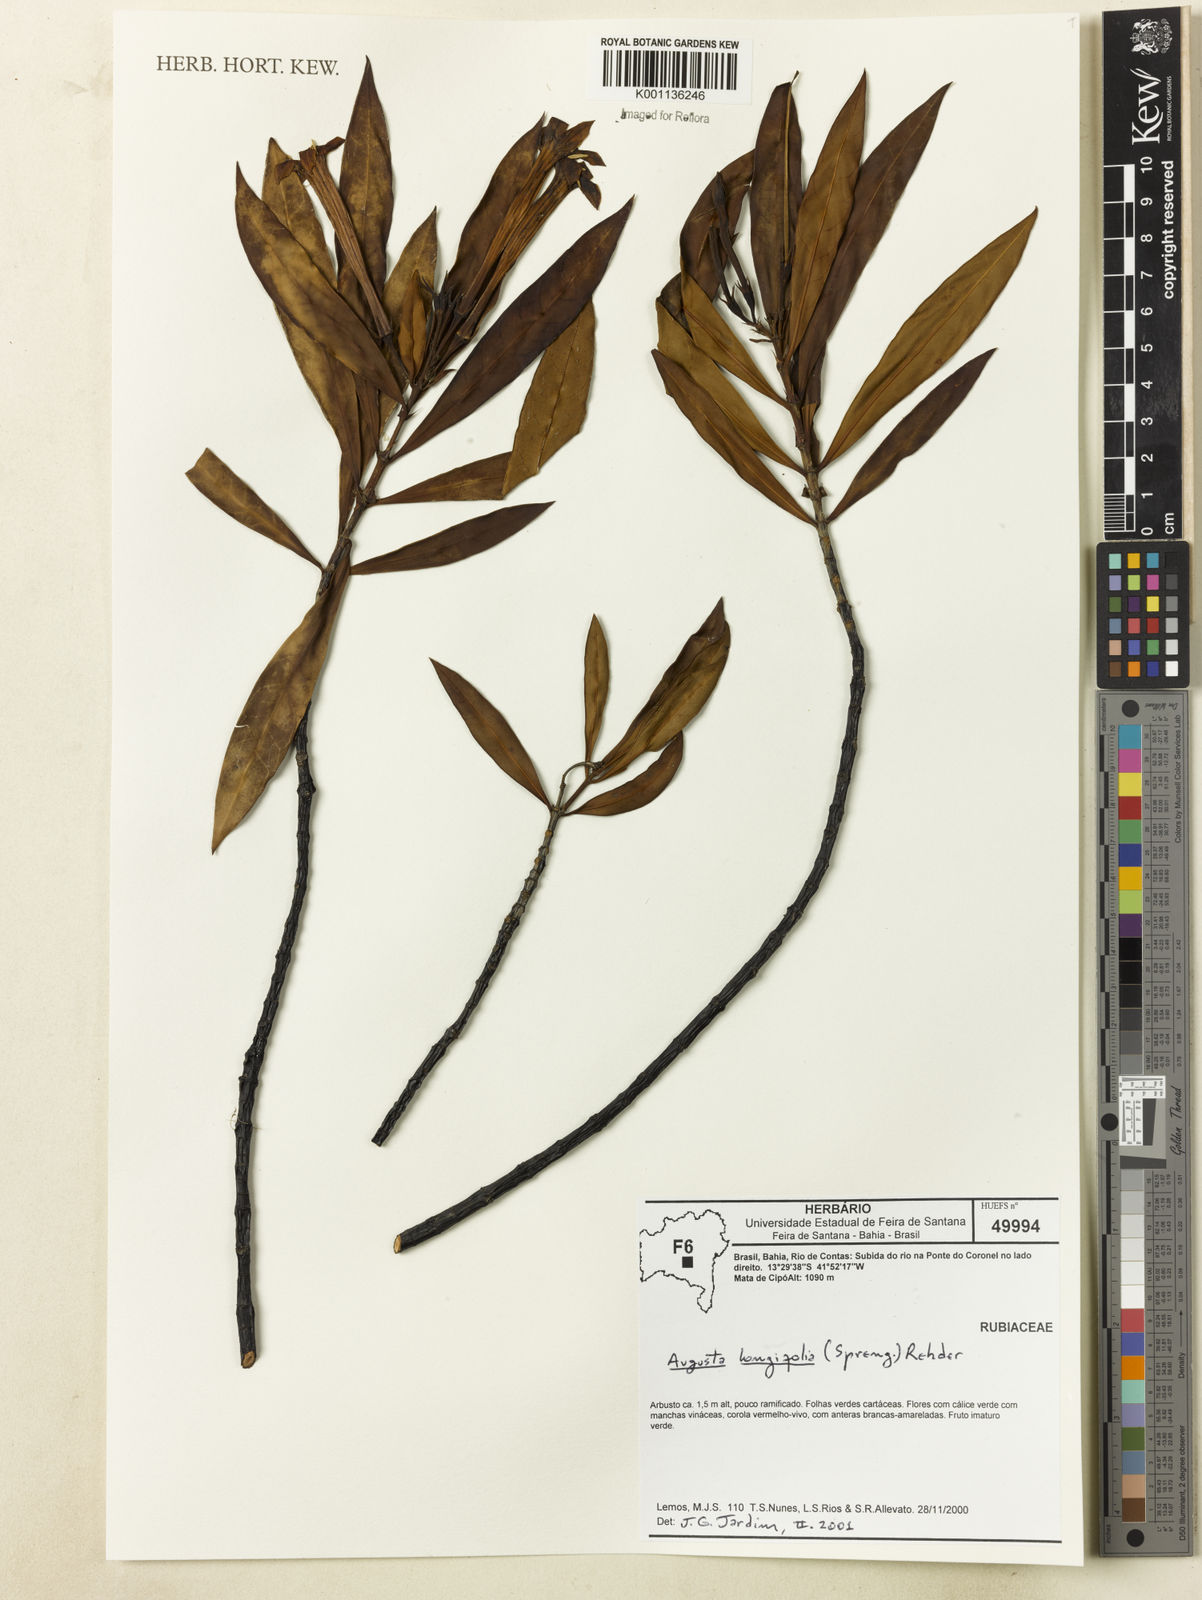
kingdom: Plantae
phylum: Tracheophyta
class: Magnoliopsida
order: Gentianales
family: Rubiaceae
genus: Augusta
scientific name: Augusta longifolia
